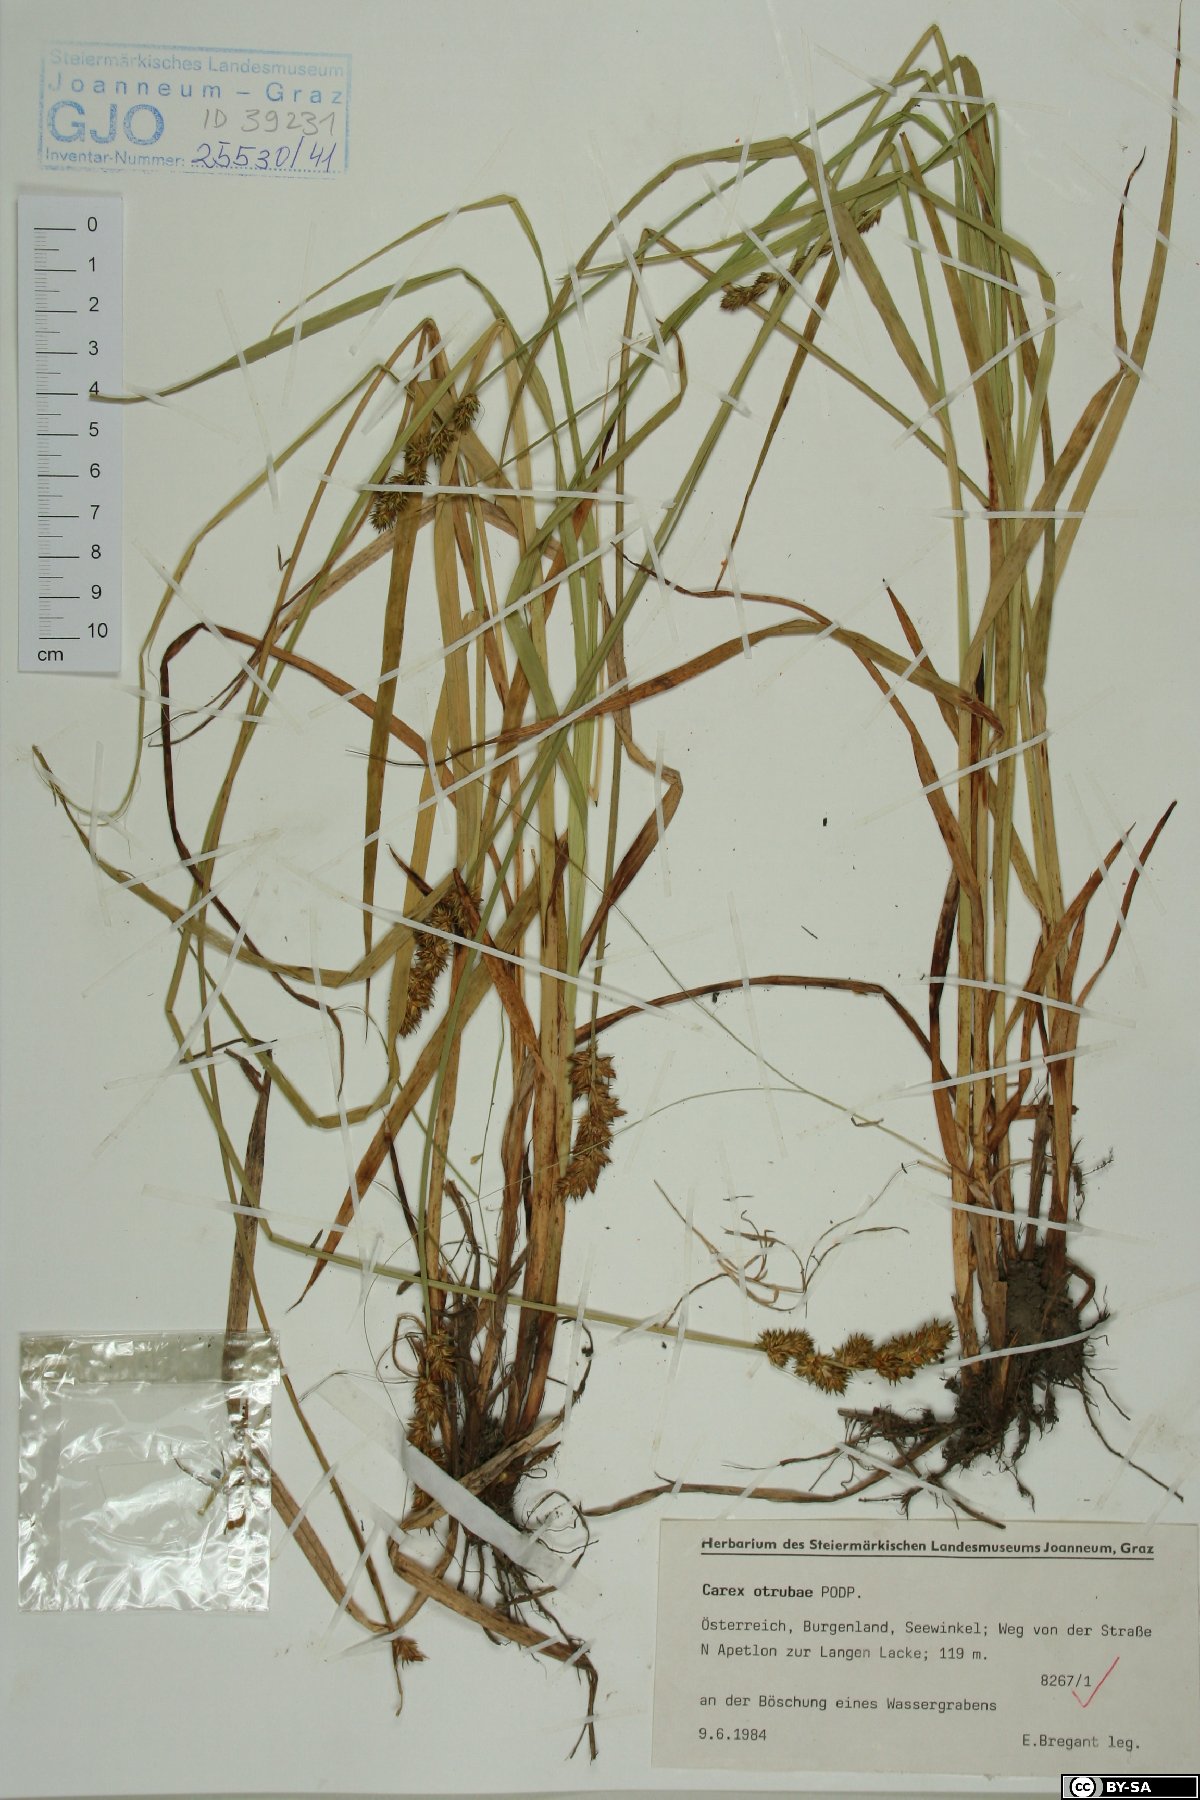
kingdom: Plantae
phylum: Tracheophyta
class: Liliopsida
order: Poales
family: Cyperaceae
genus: Carex
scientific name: Carex otrubae
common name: False fox-sedge
